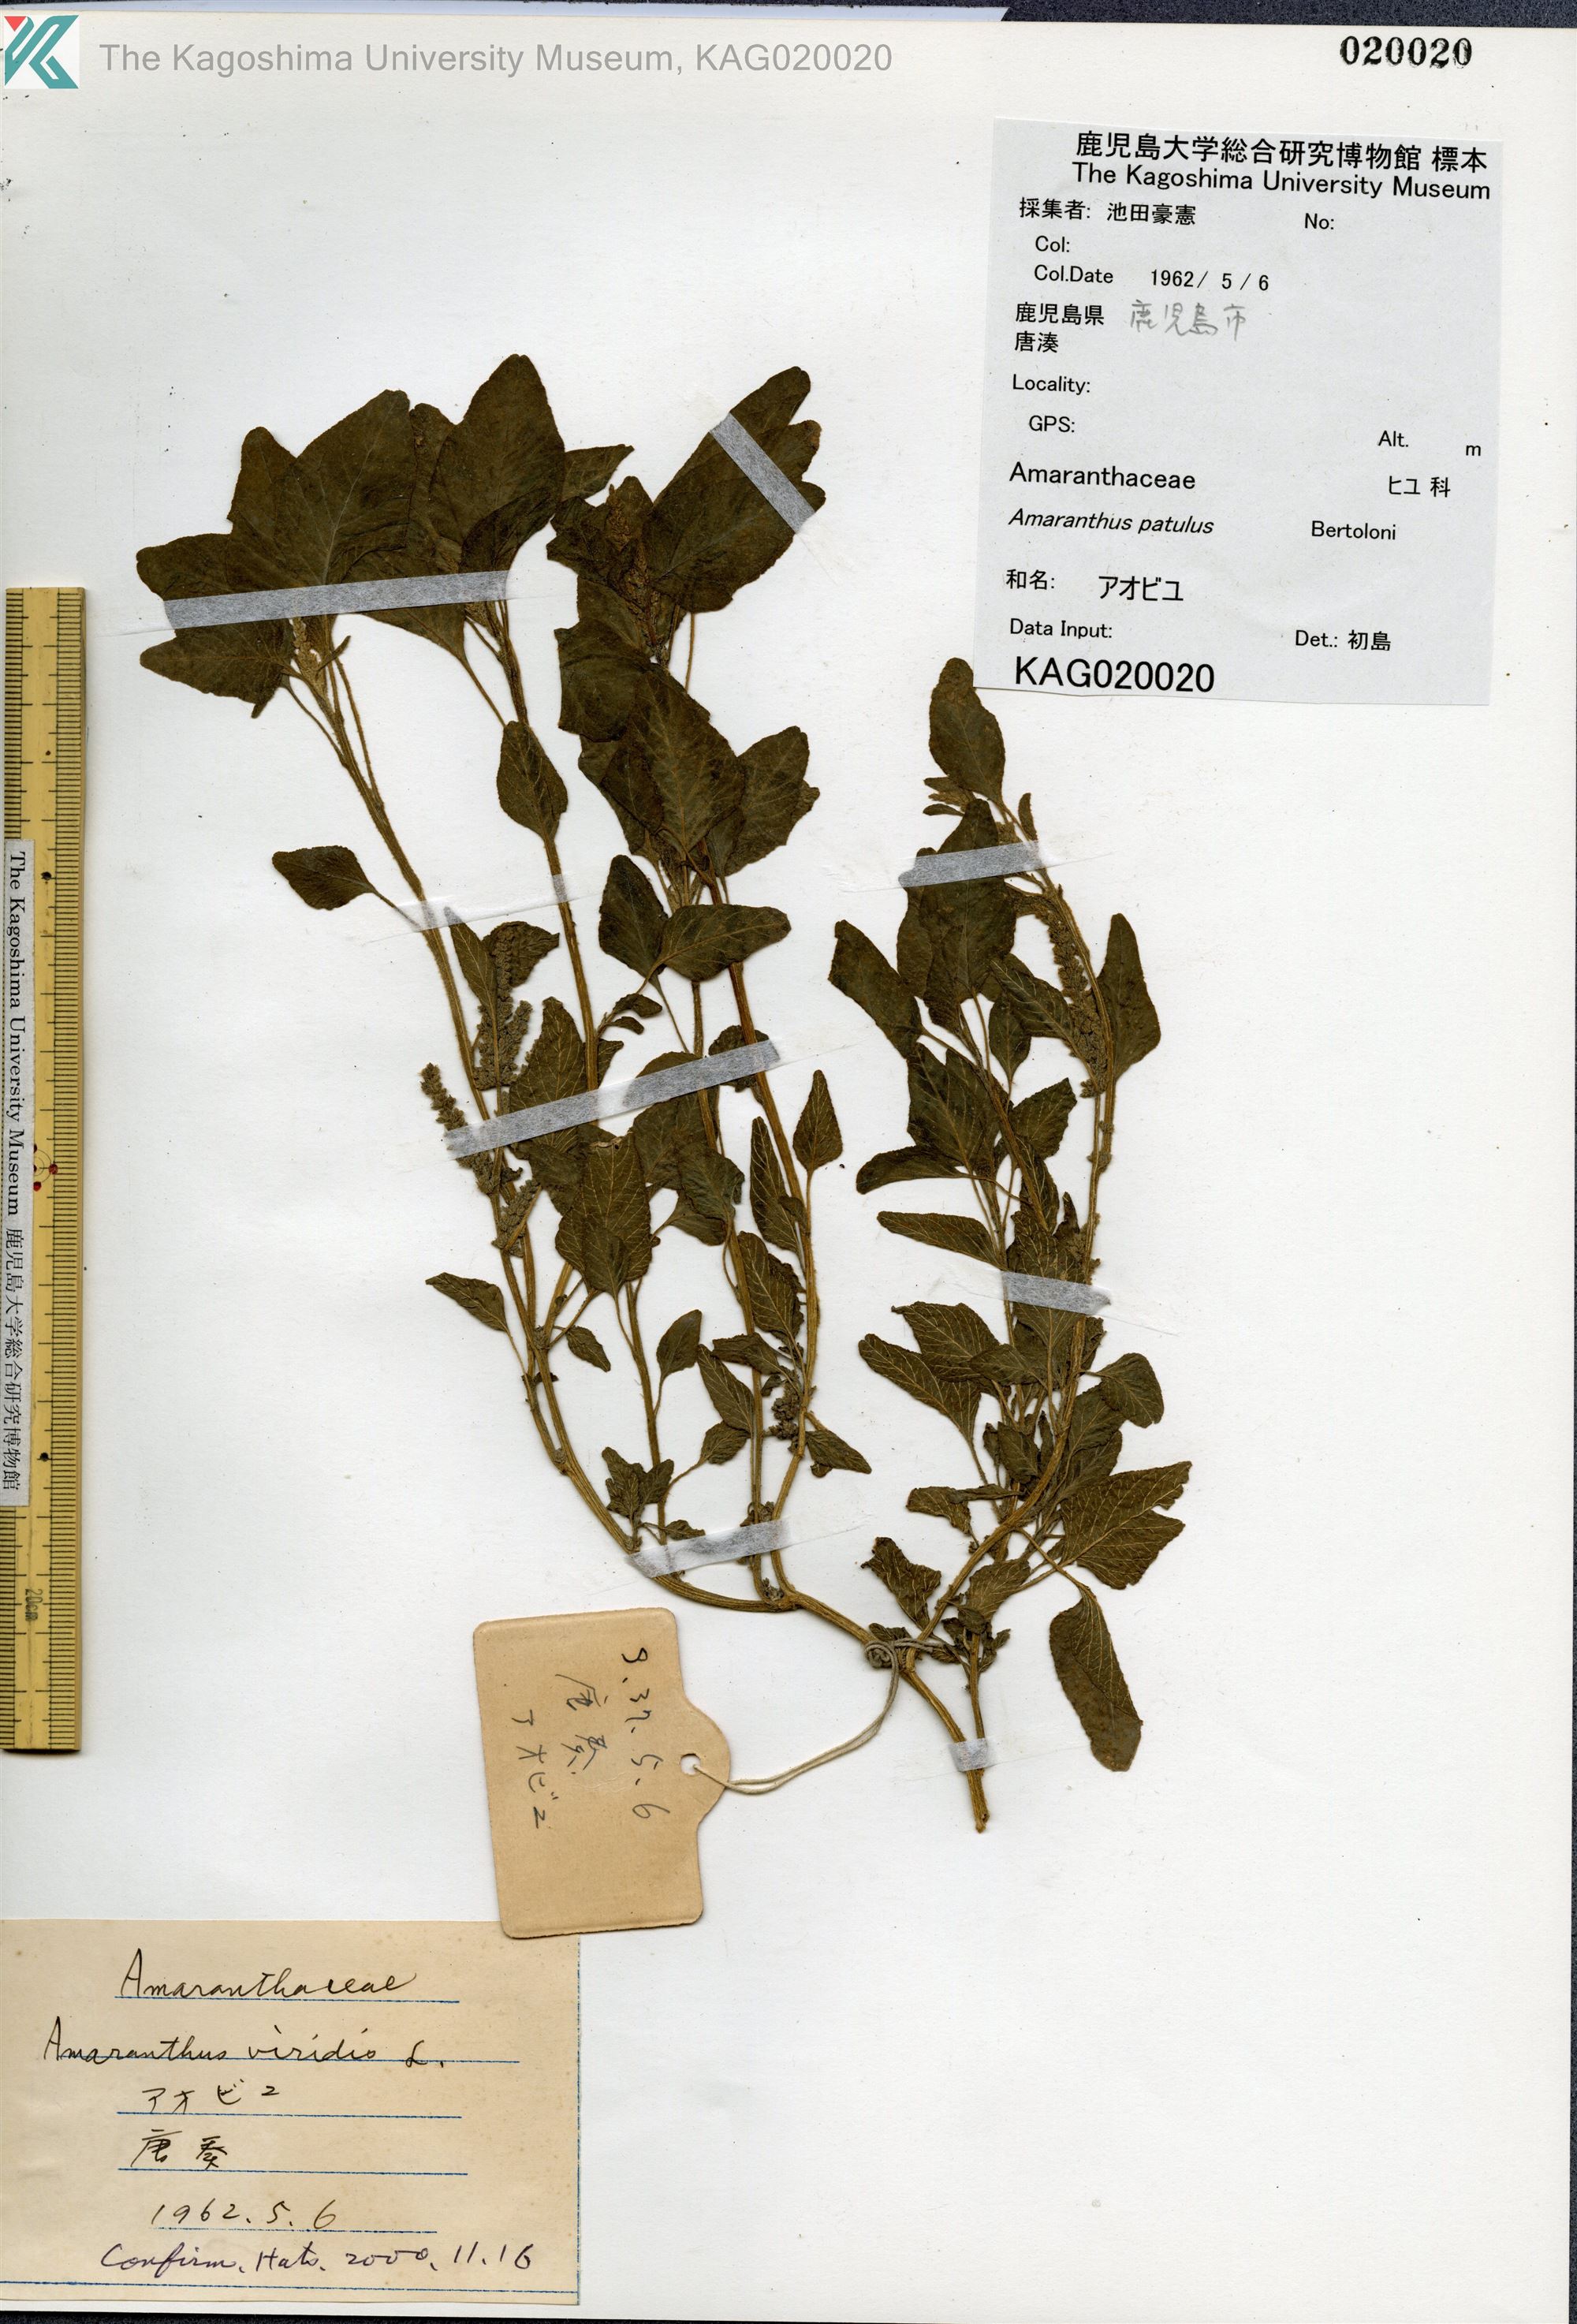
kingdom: Plantae
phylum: Tracheophyta
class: Magnoliopsida
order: Caryophyllales
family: Amaranthaceae
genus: Amaranthus
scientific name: Amaranthus hybridus
